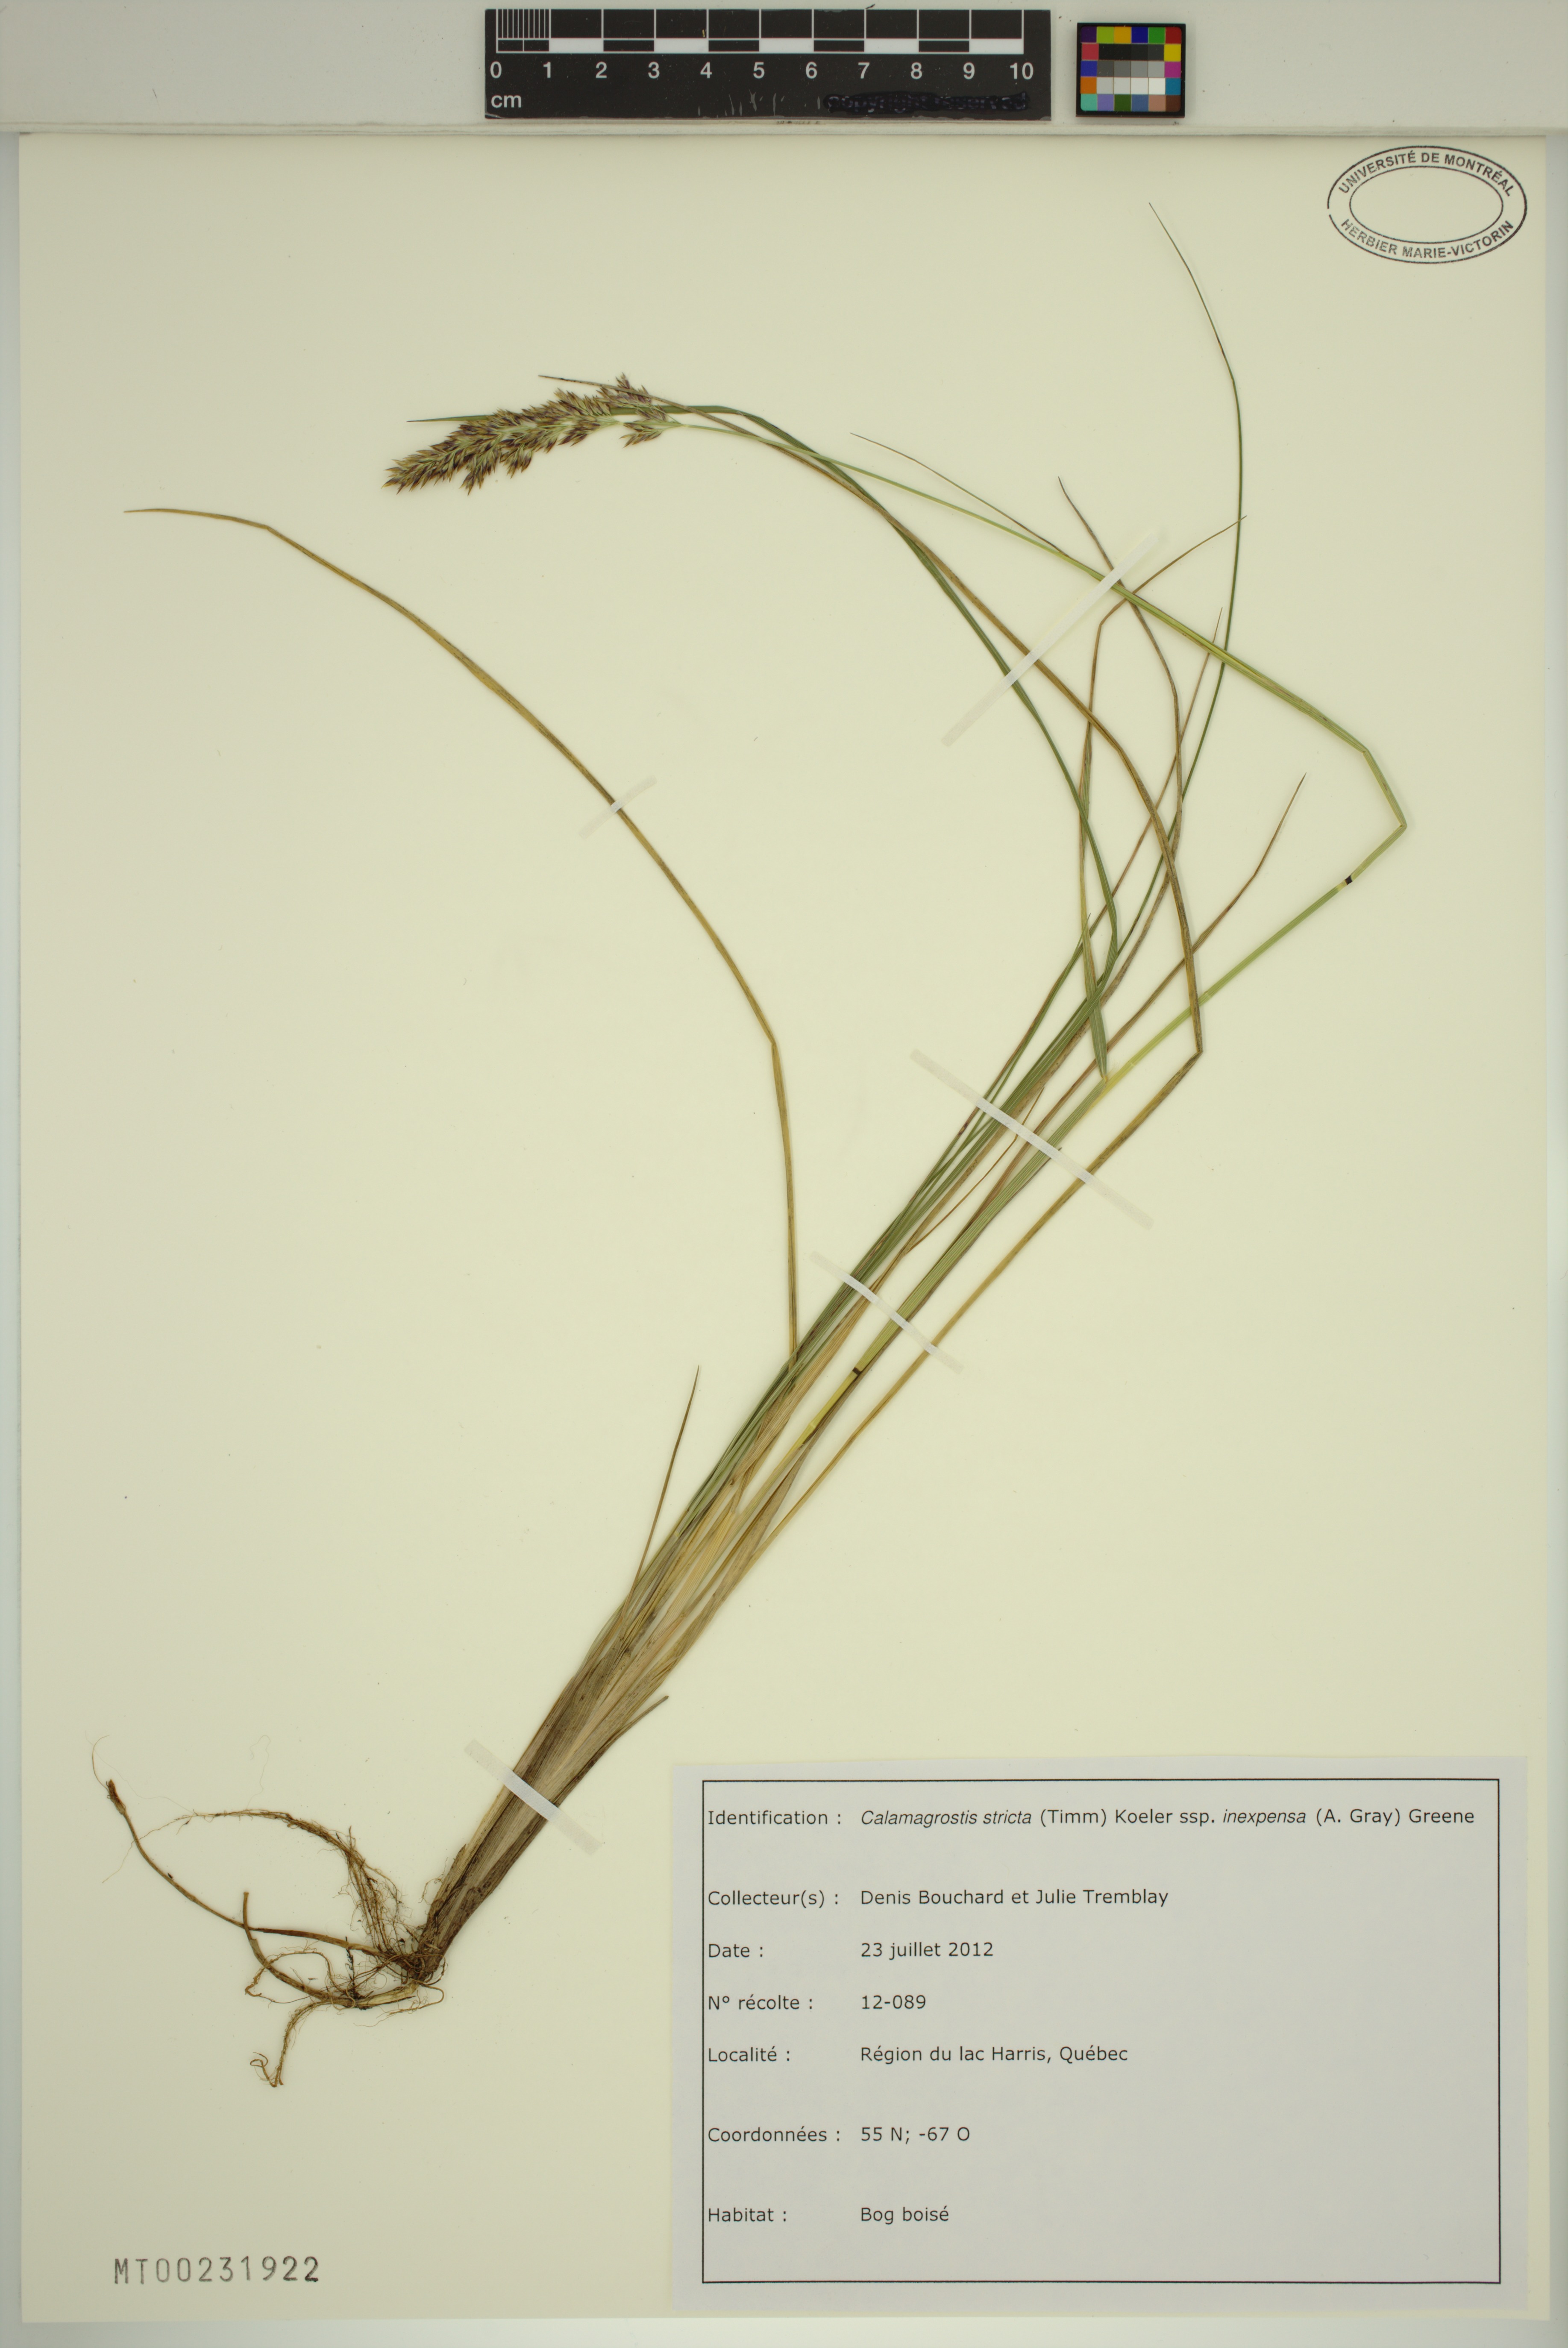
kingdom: Plantae
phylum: Tracheophyta
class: Liliopsida
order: Poales
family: Poaceae
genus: Calamagrostis
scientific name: Calamagrostis inexpansa
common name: Northern reedgrass
